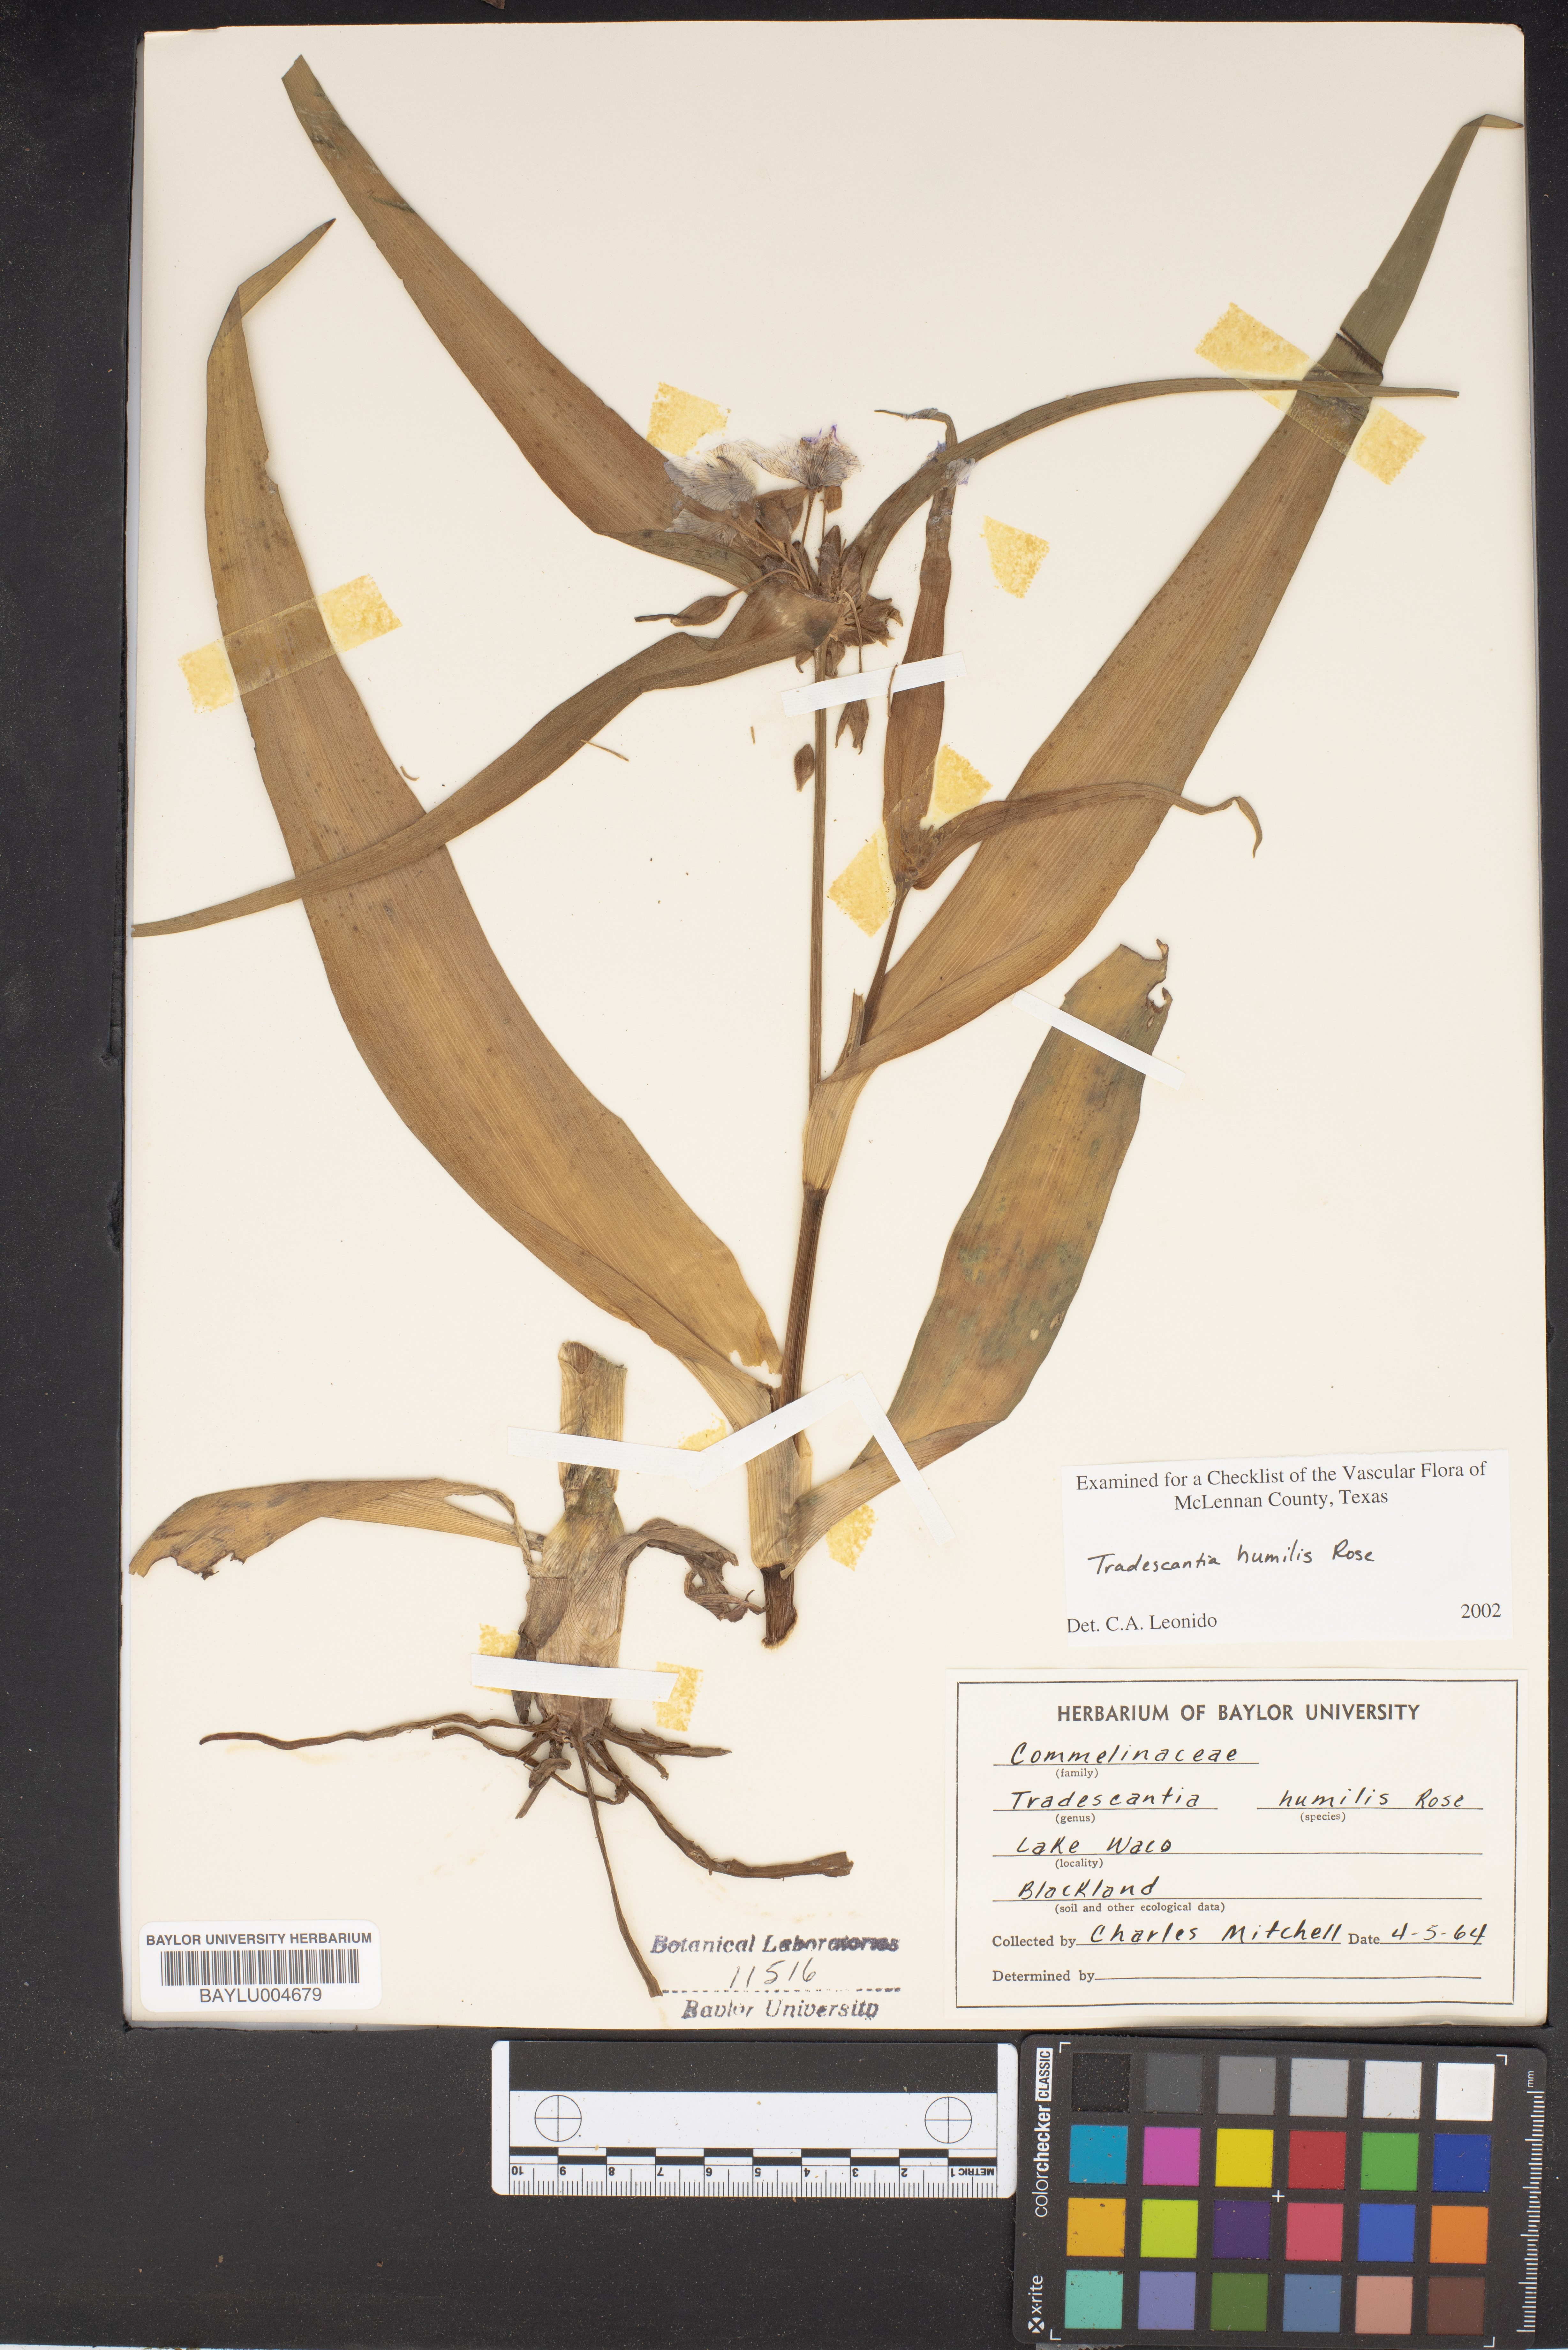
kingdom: Plantae
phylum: Tracheophyta
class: Liliopsida
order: Commelinales
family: Commelinaceae
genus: Tradescantia
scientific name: Tradescantia humilis
